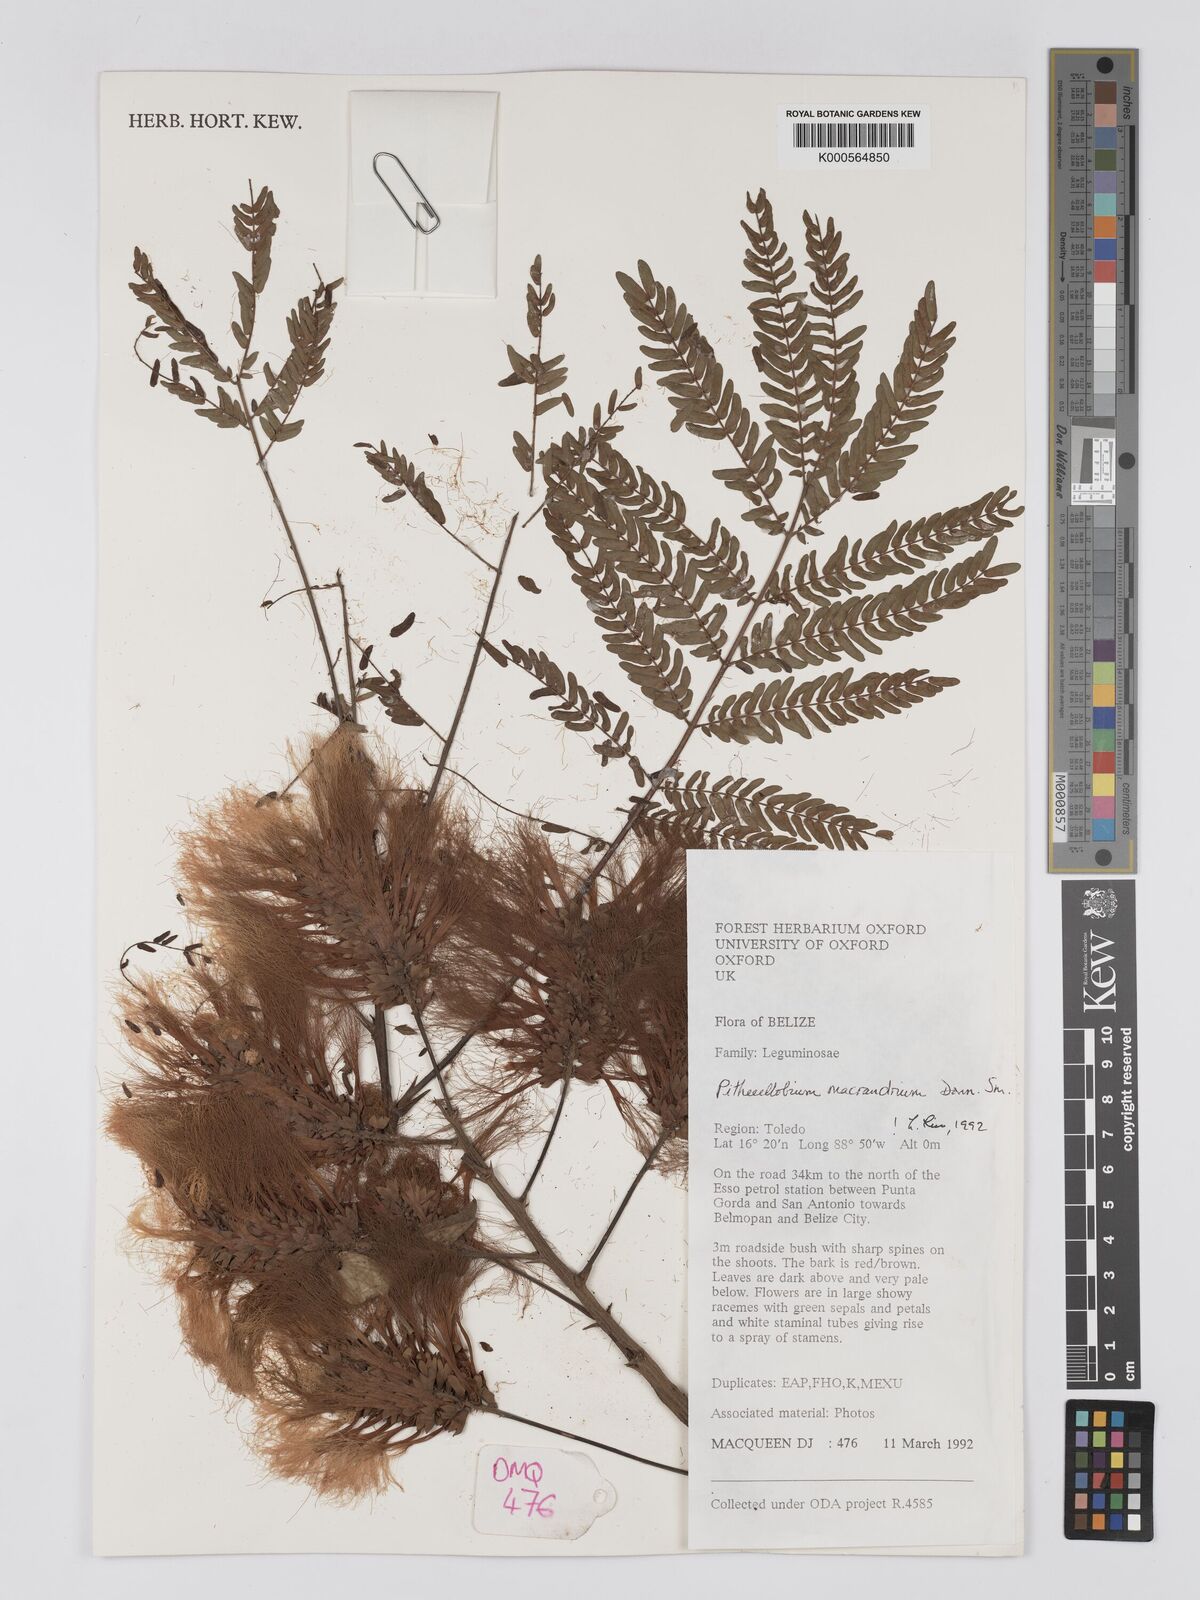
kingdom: Plantae
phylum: Tracheophyta
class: Magnoliopsida
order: Fabales
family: Fabaceae
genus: Pithecellobium
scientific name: Pithecellobium macrandrium
